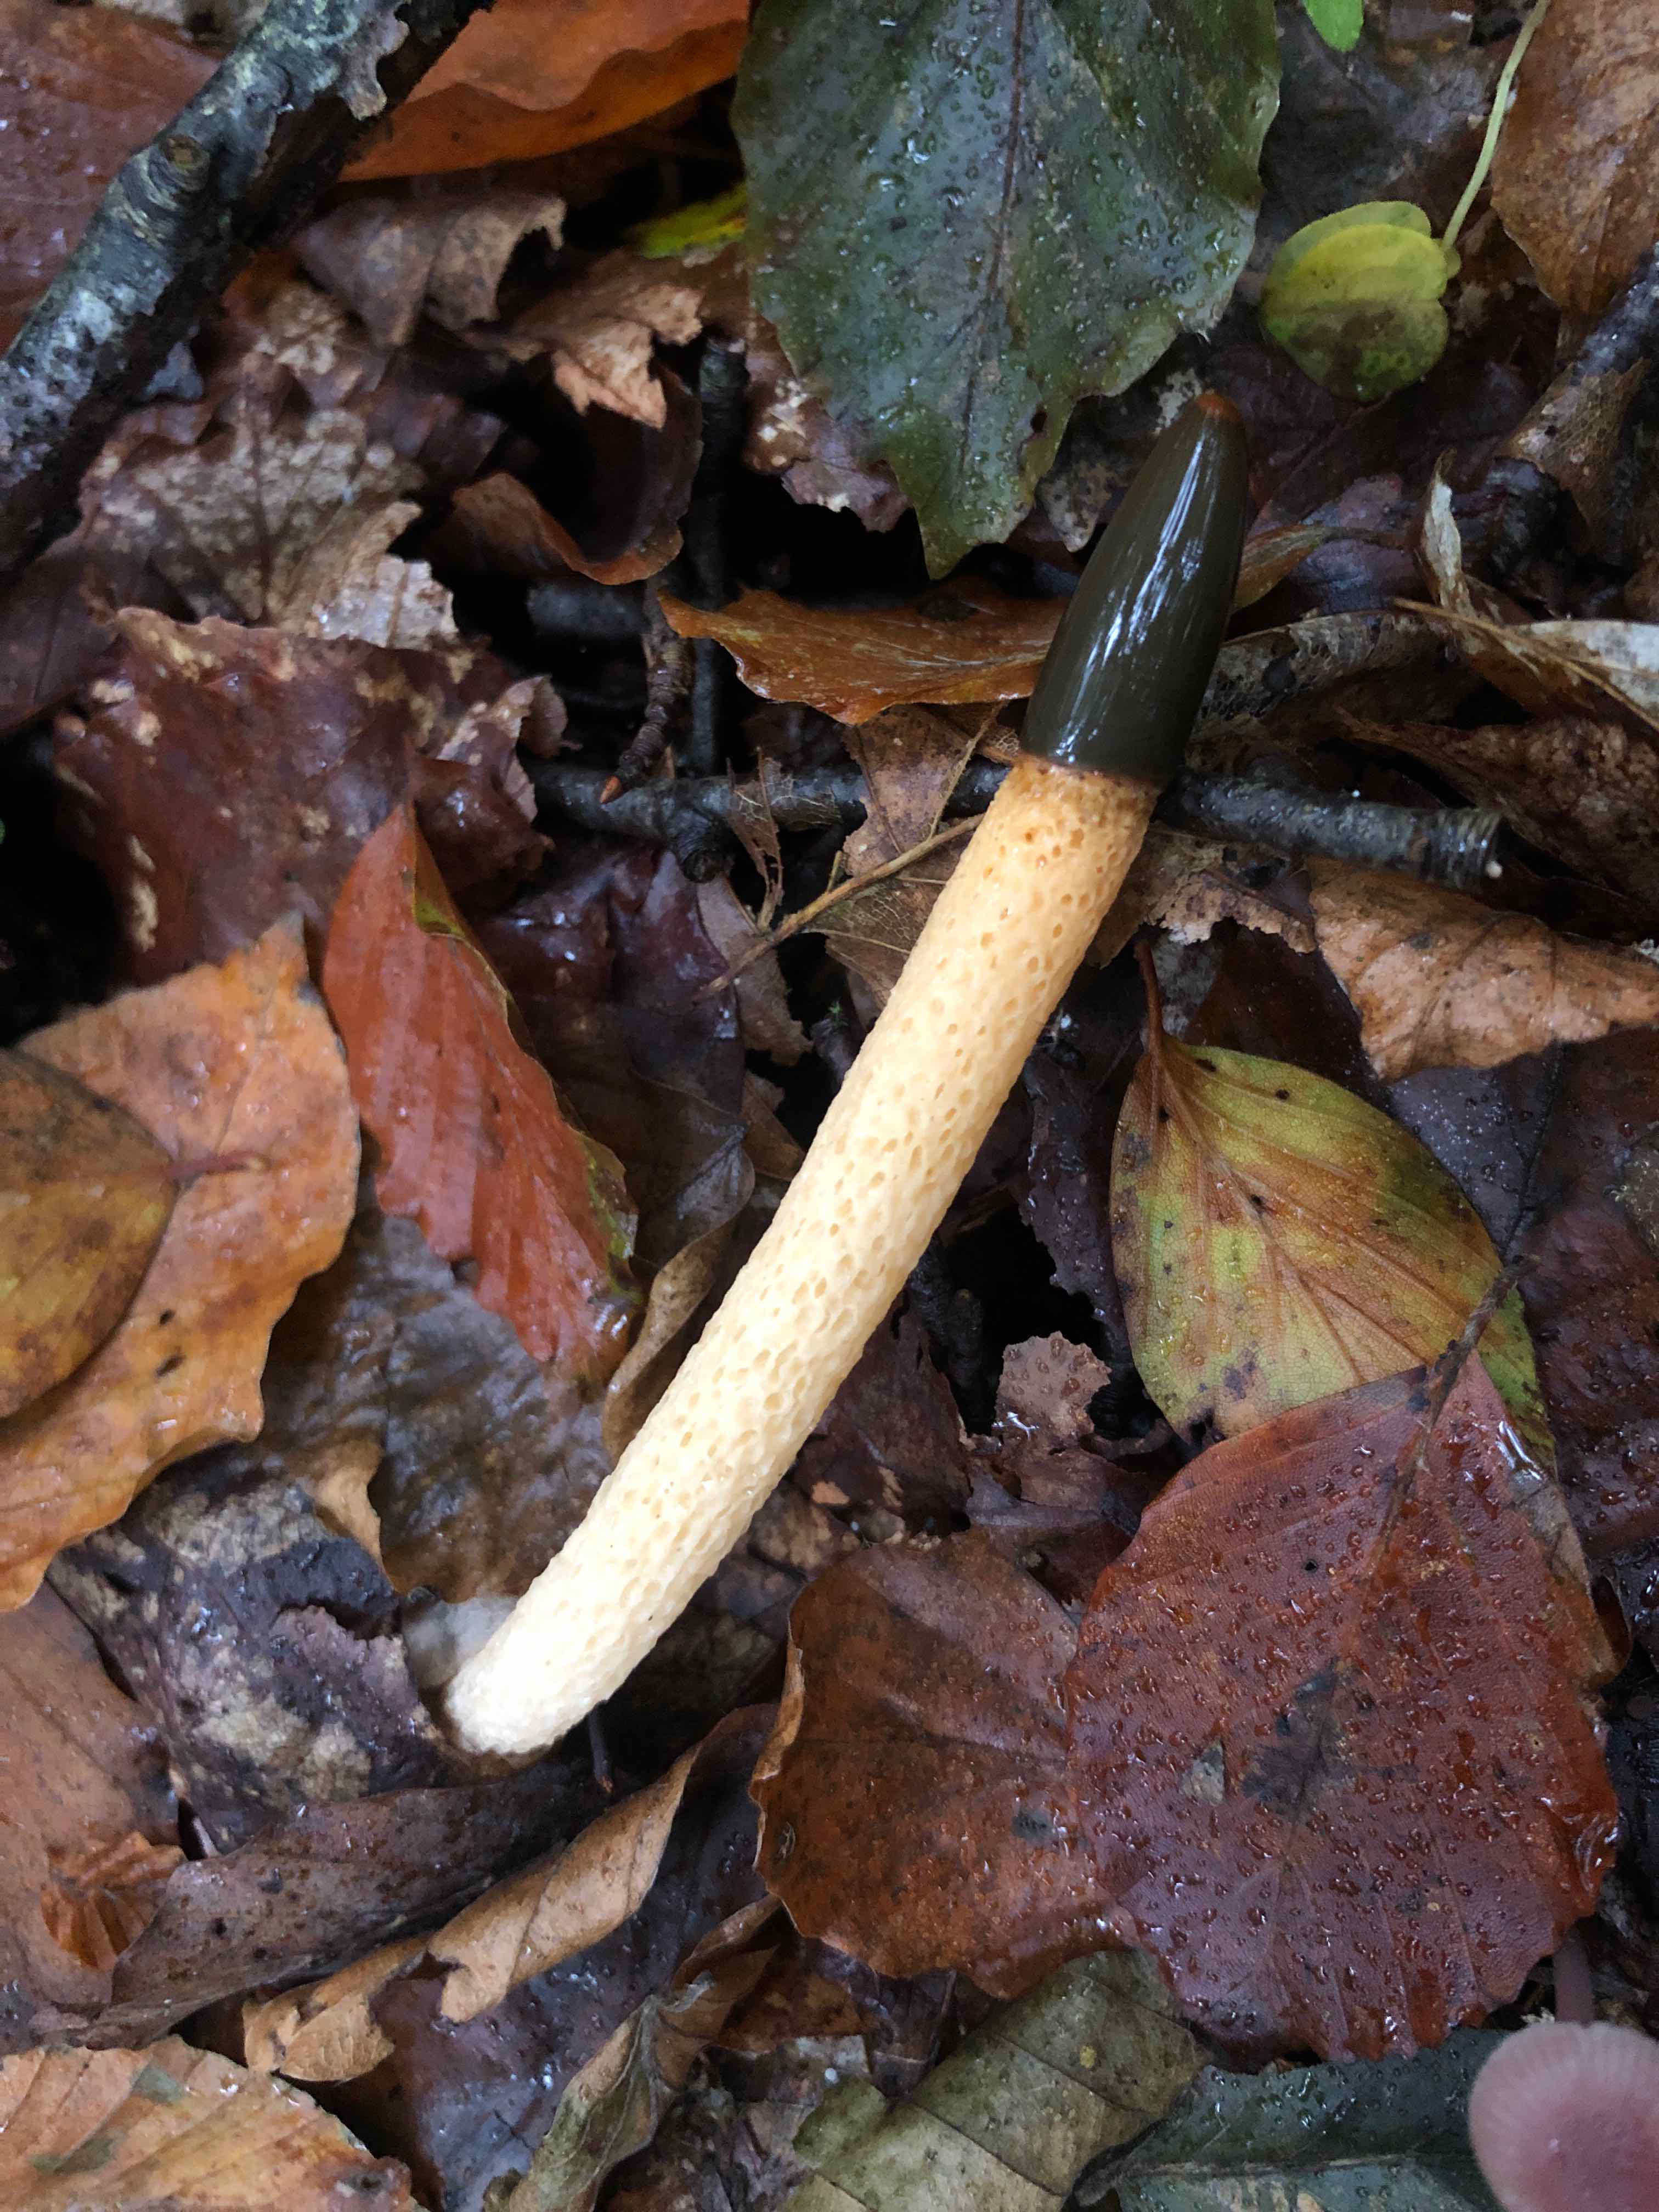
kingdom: Fungi
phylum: Basidiomycota
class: Agaricomycetes
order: Phallales
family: Phallaceae
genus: Mutinus
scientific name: Mutinus caninus
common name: hunde-stinksvamp
